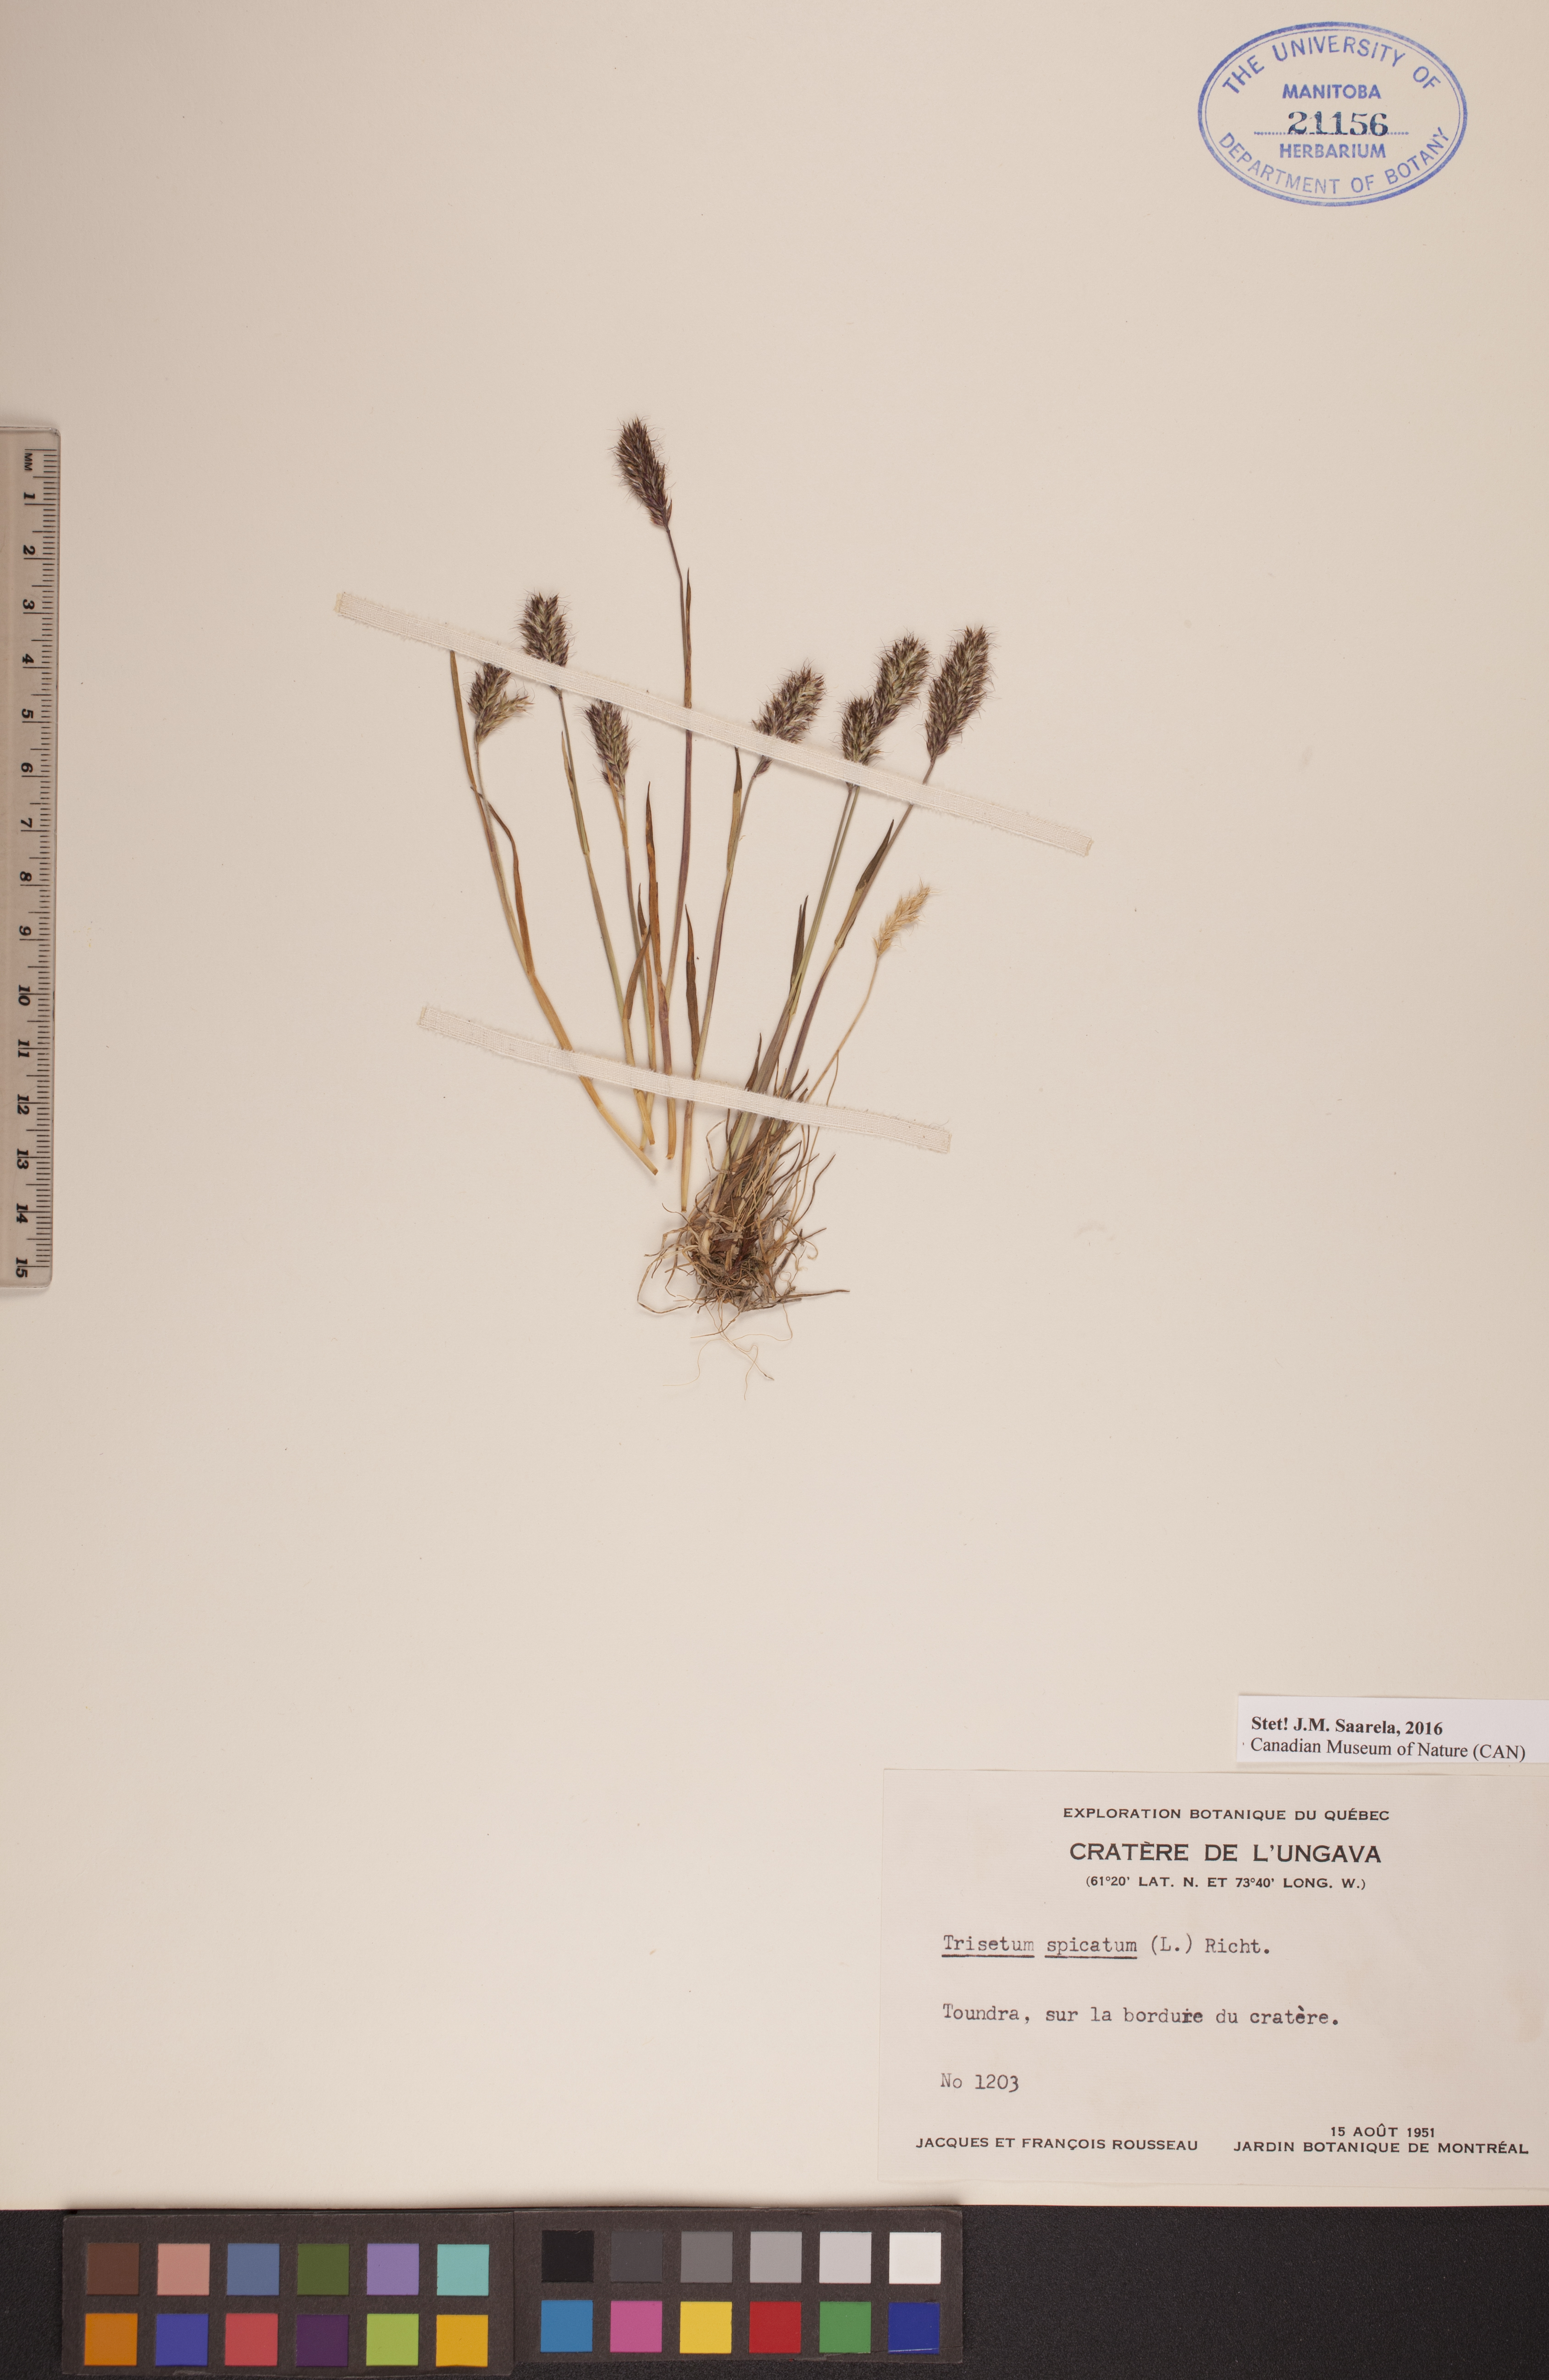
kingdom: Plantae
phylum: Tracheophyta
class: Liliopsida
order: Poales
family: Poaceae
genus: Koeleria
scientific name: Koeleria spicata
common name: Mountain trisetum
